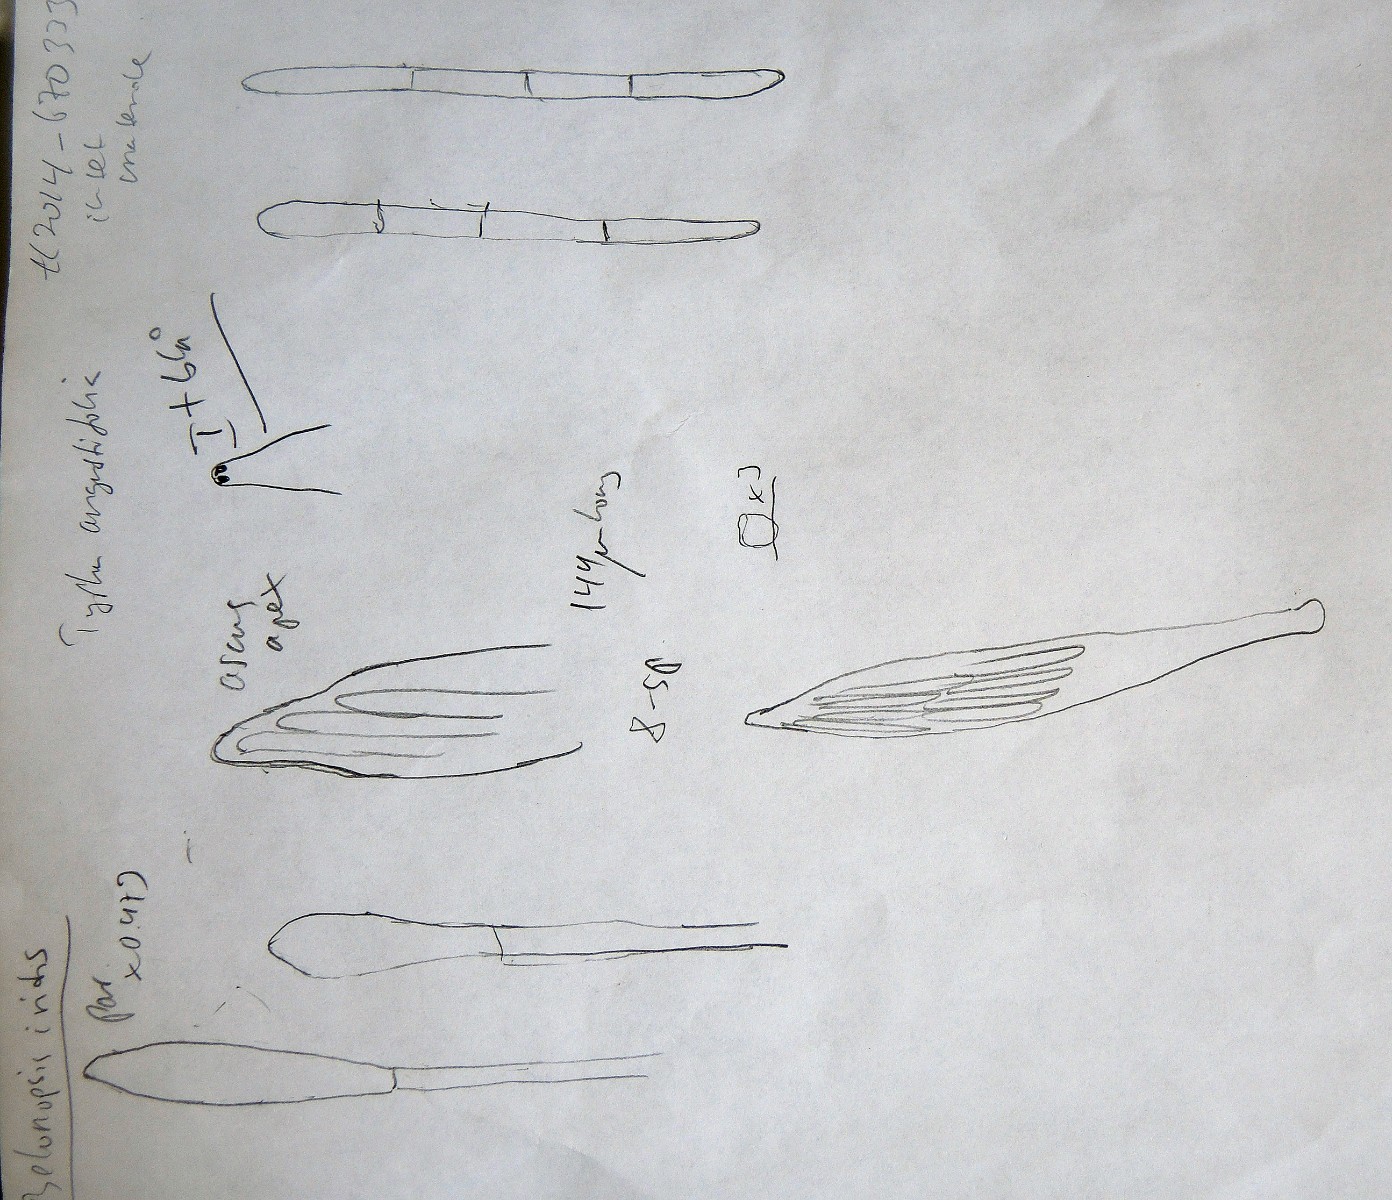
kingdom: Fungi
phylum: Ascomycota
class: Leotiomycetes
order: Helotiales
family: Mollisiaceae
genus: Belonopsis
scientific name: Belonopsis iridis
